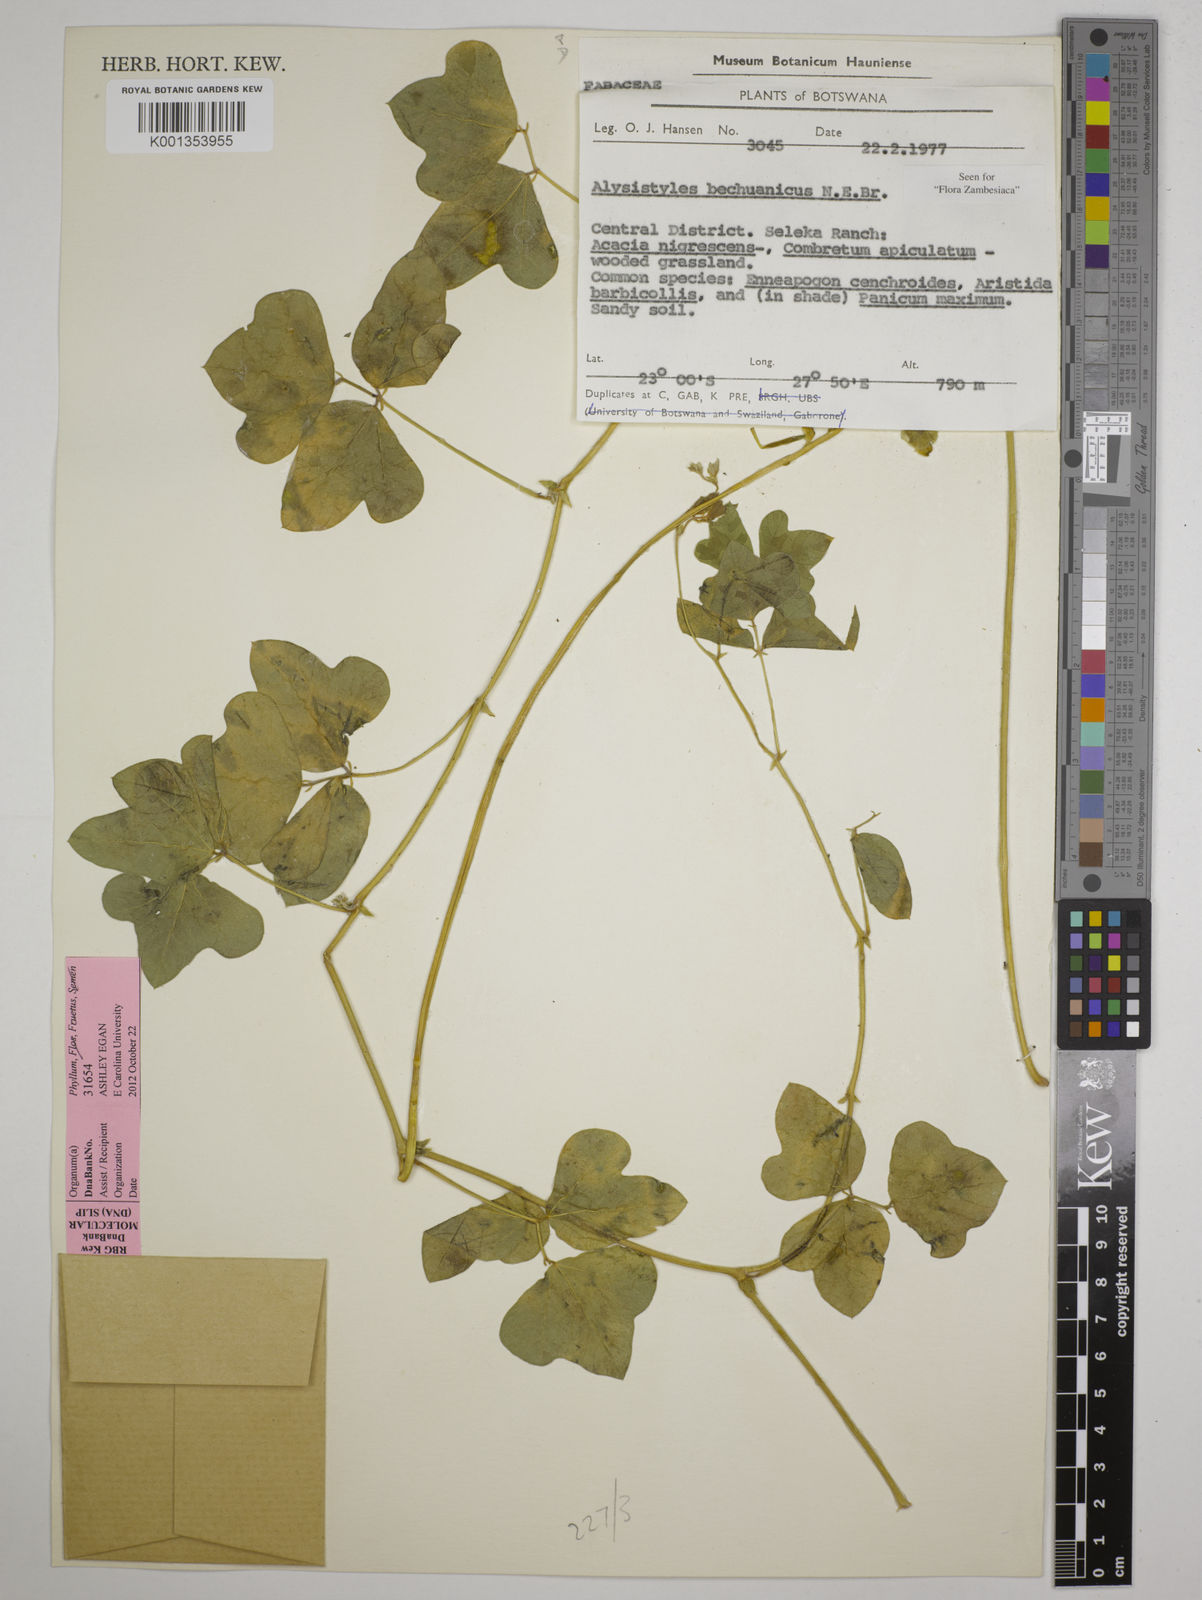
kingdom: Plantae
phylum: Tracheophyta
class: Magnoliopsida
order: Fabales
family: Fabaceae
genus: Alistilus
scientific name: Alistilus bechuanicus
